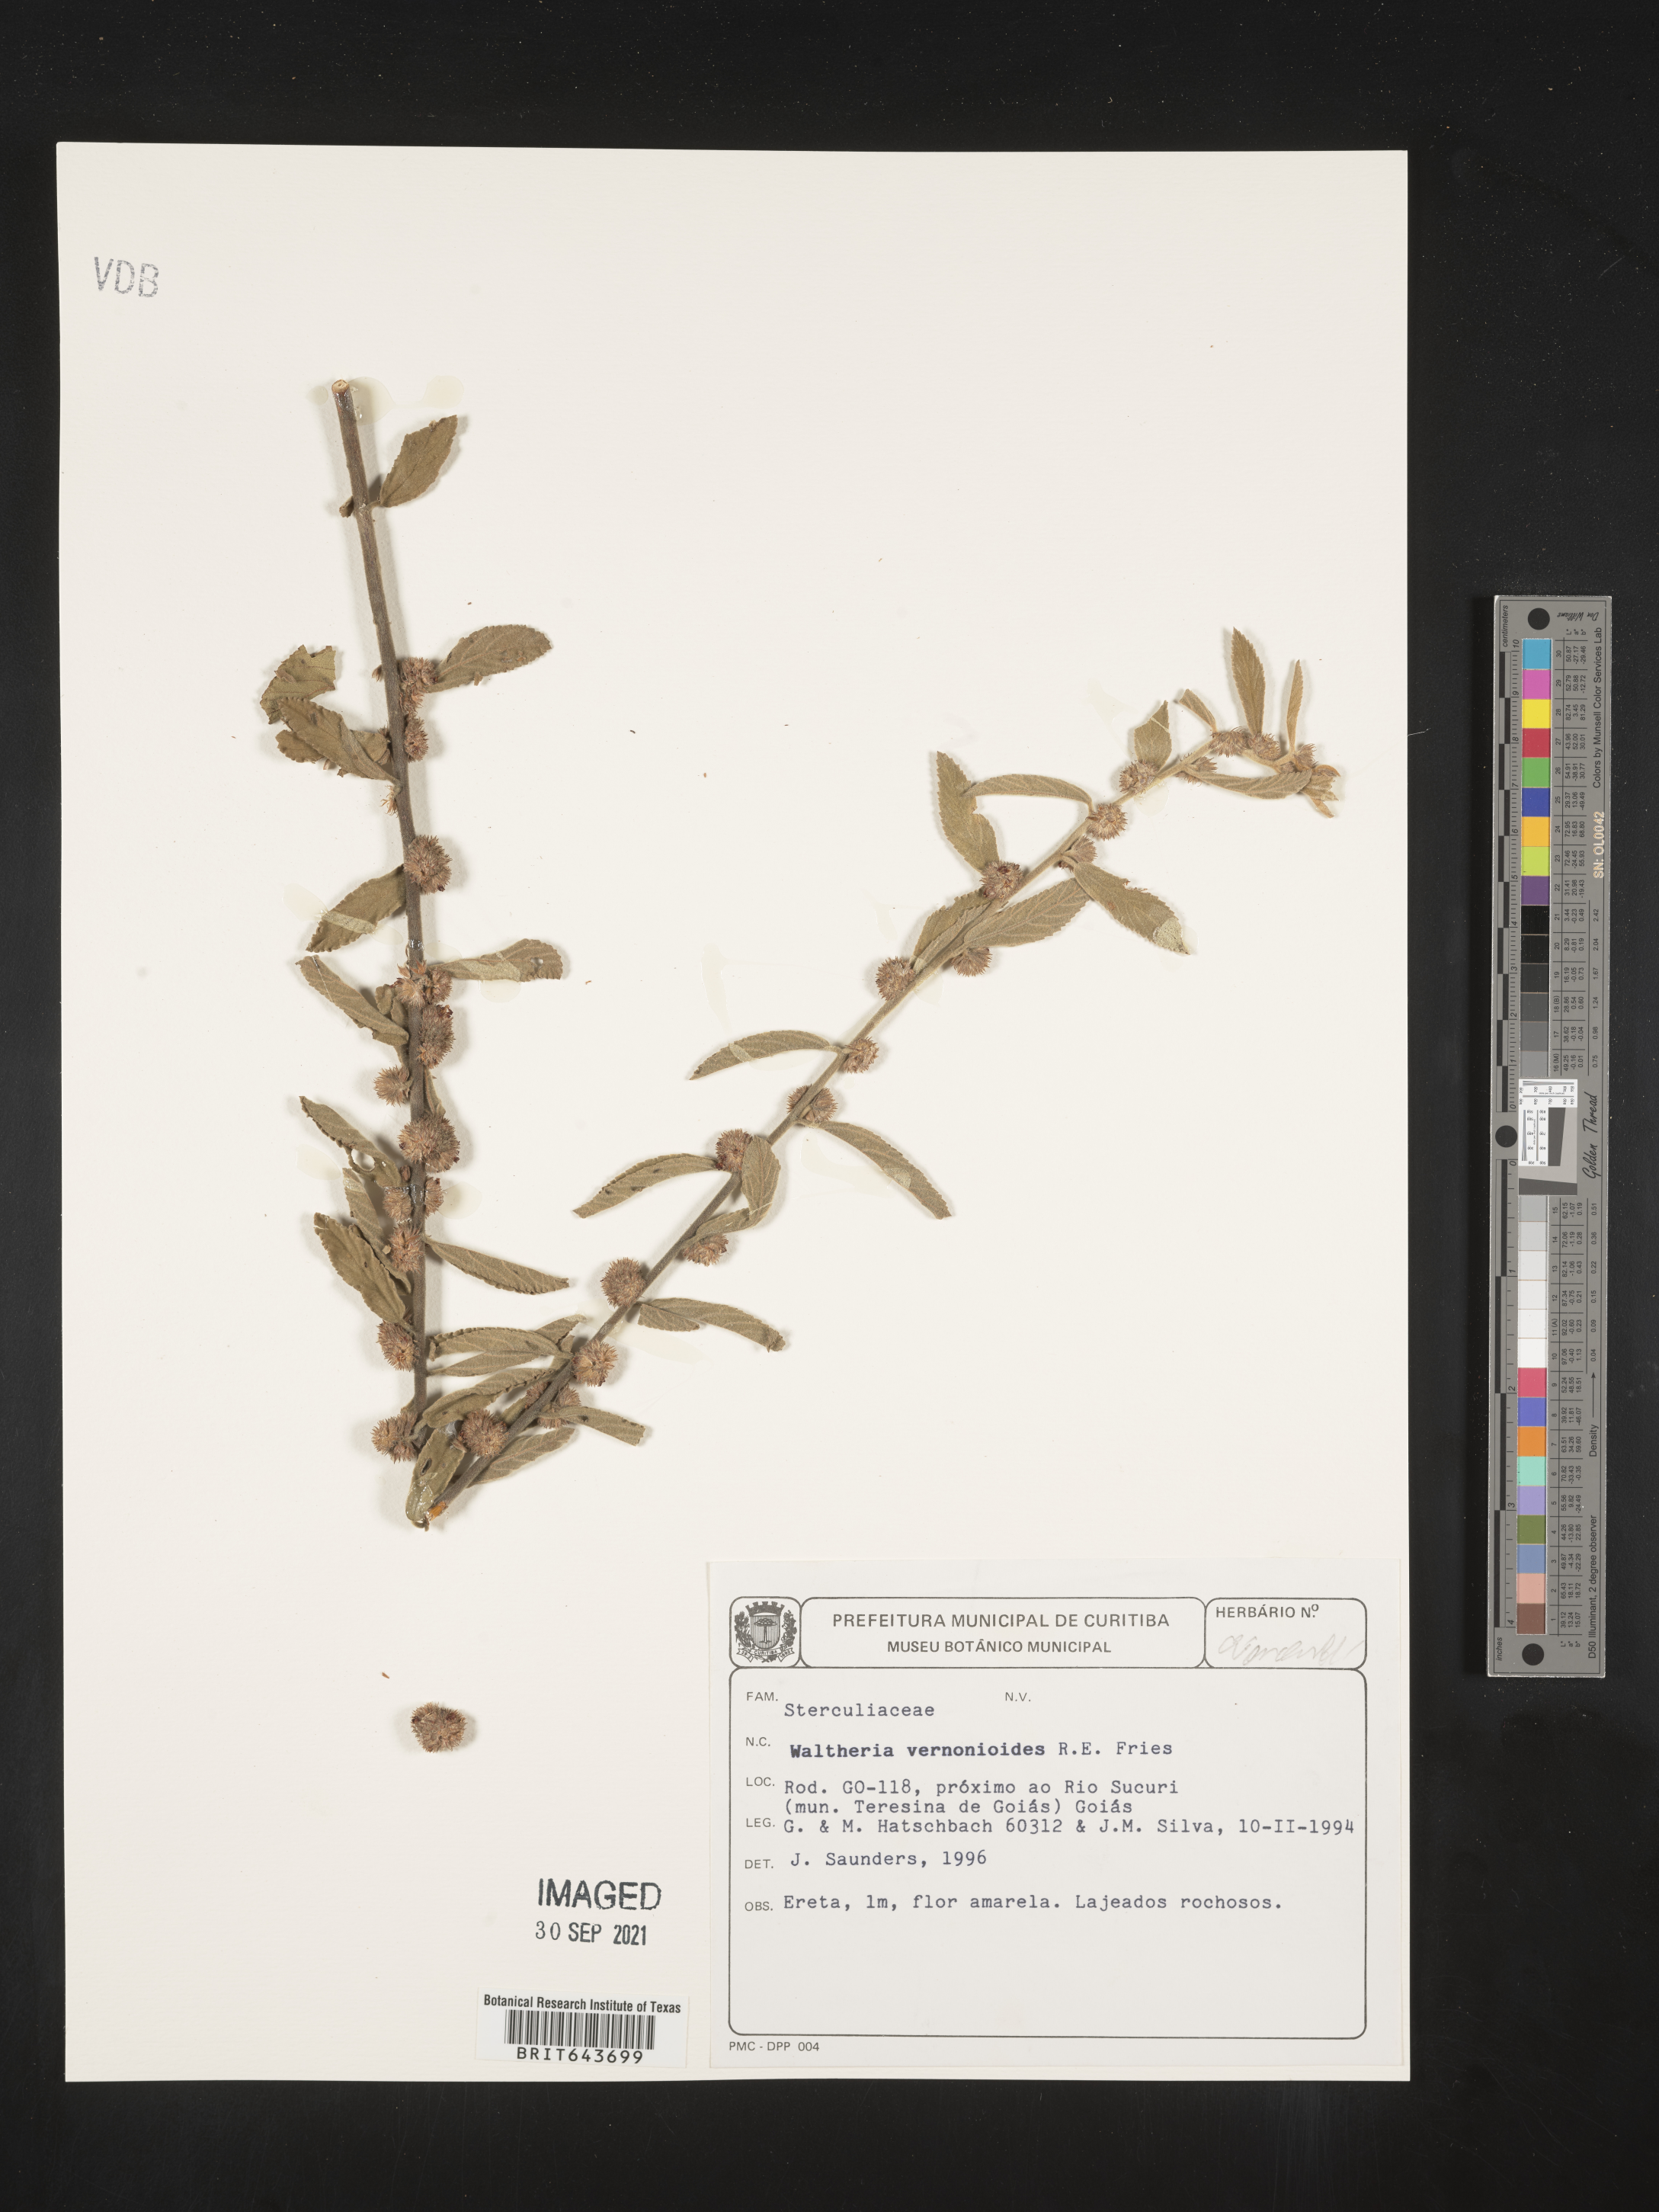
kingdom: Plantae
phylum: Tracheophyta
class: Magnoliopsida
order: Malvales
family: Malvaceae
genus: Waltheria
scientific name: Waltheria
